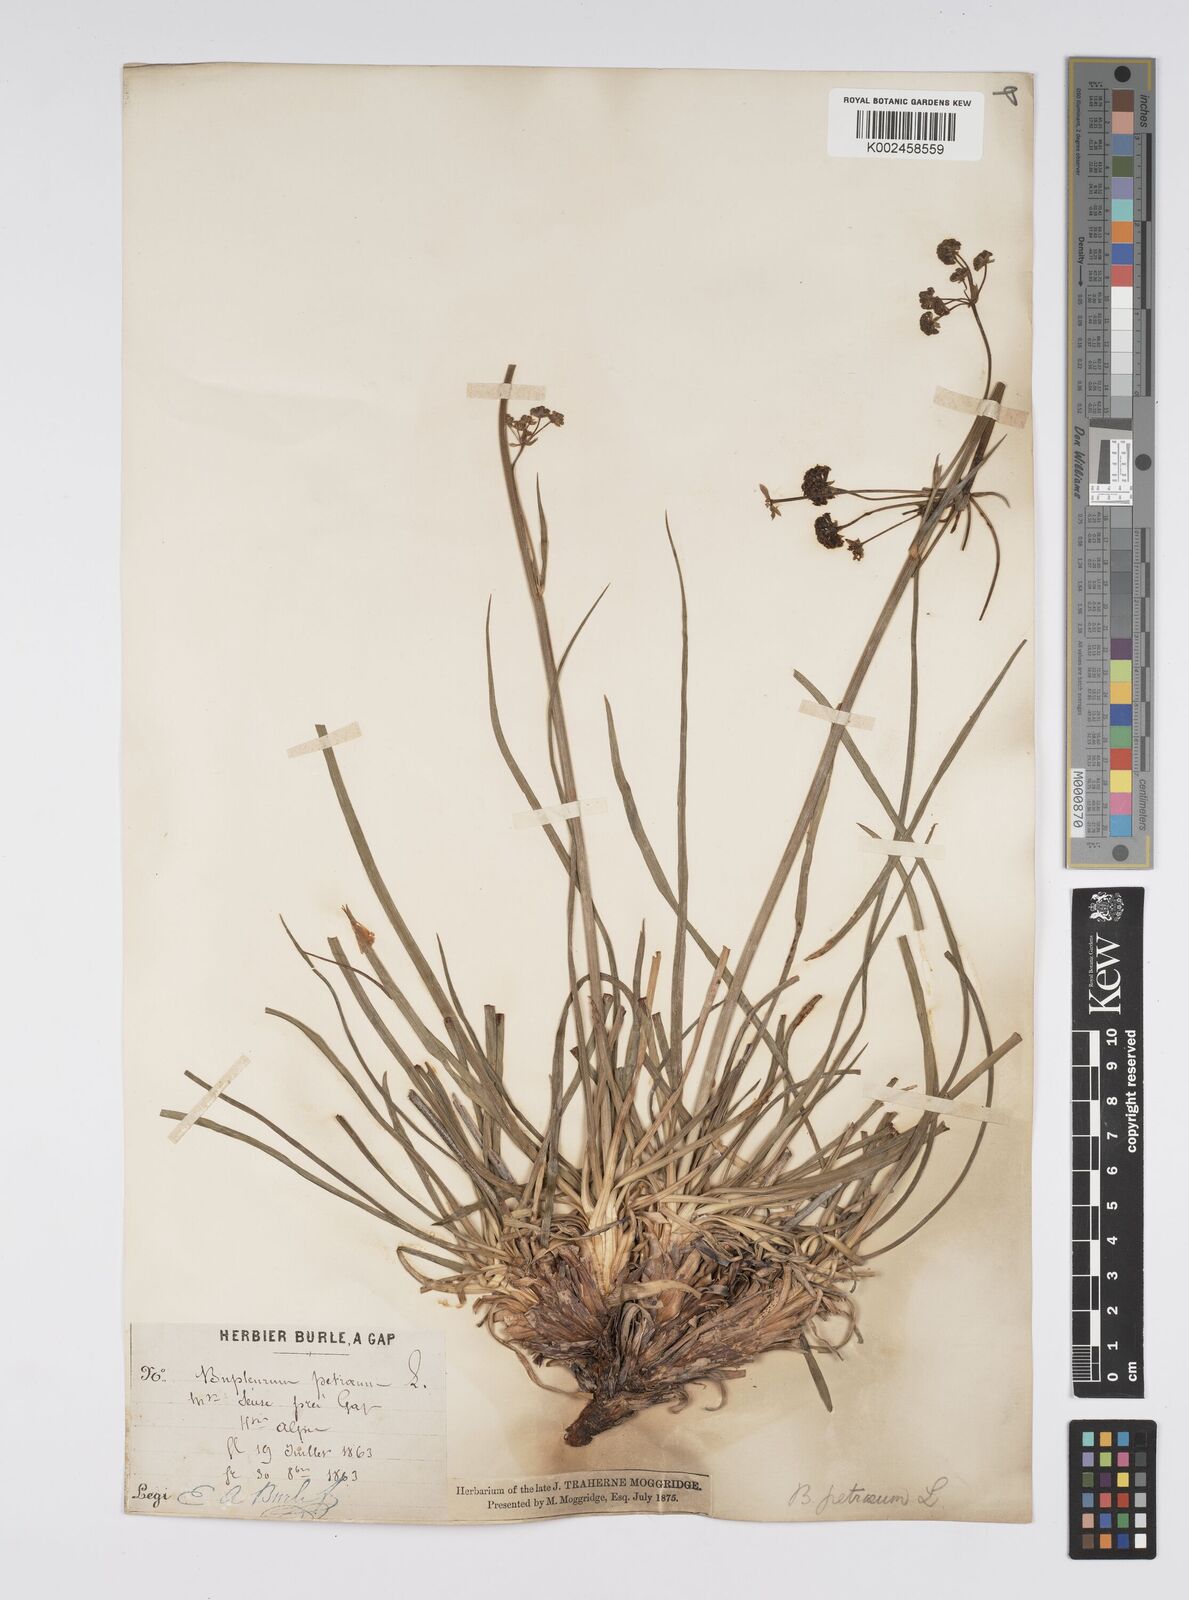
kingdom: Plantae
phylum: Tracheophyta
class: Magnoliopsida
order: Apiales
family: Apiaceae
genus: Bupleurum
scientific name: Bupleurum petraeum
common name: Rock hare's-ear
